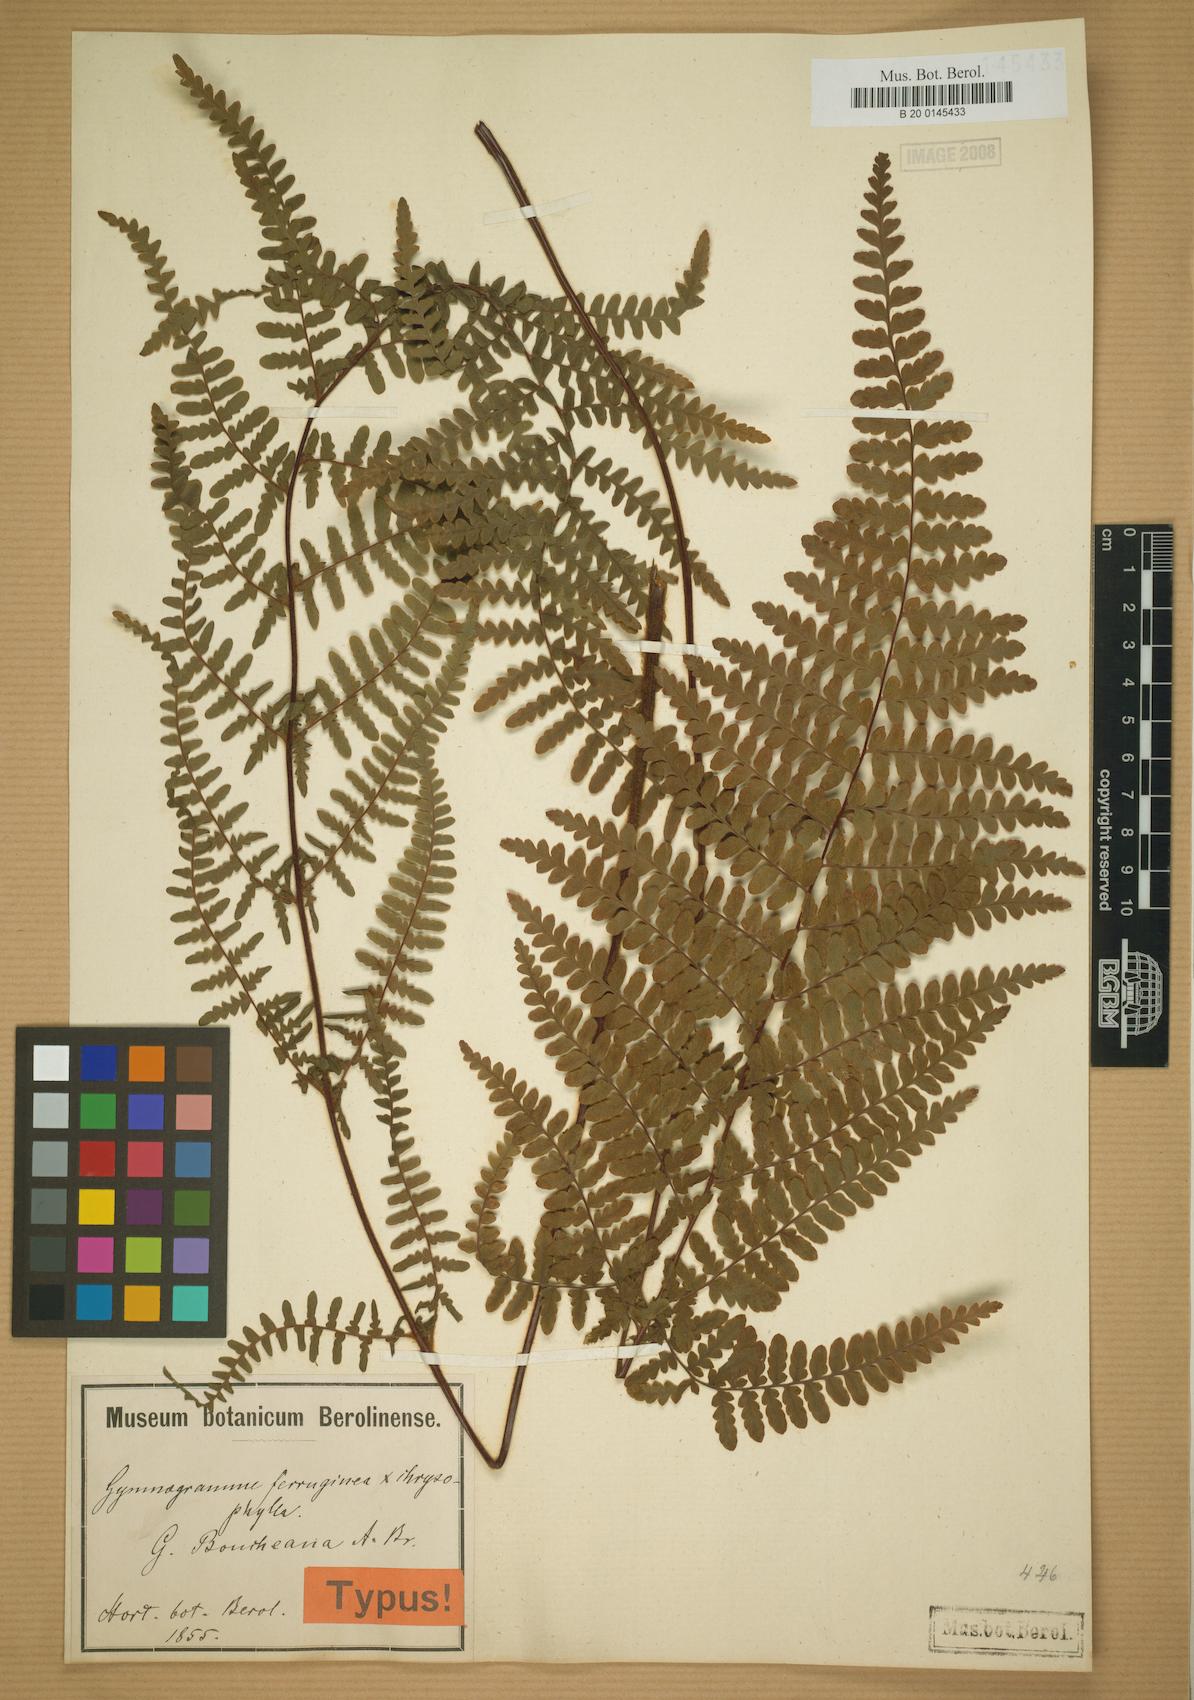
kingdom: Plantae
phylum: Tracheophyta
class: Polypodiopsida
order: Polypodiales
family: Adiantaceae
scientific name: Adiantaceae
